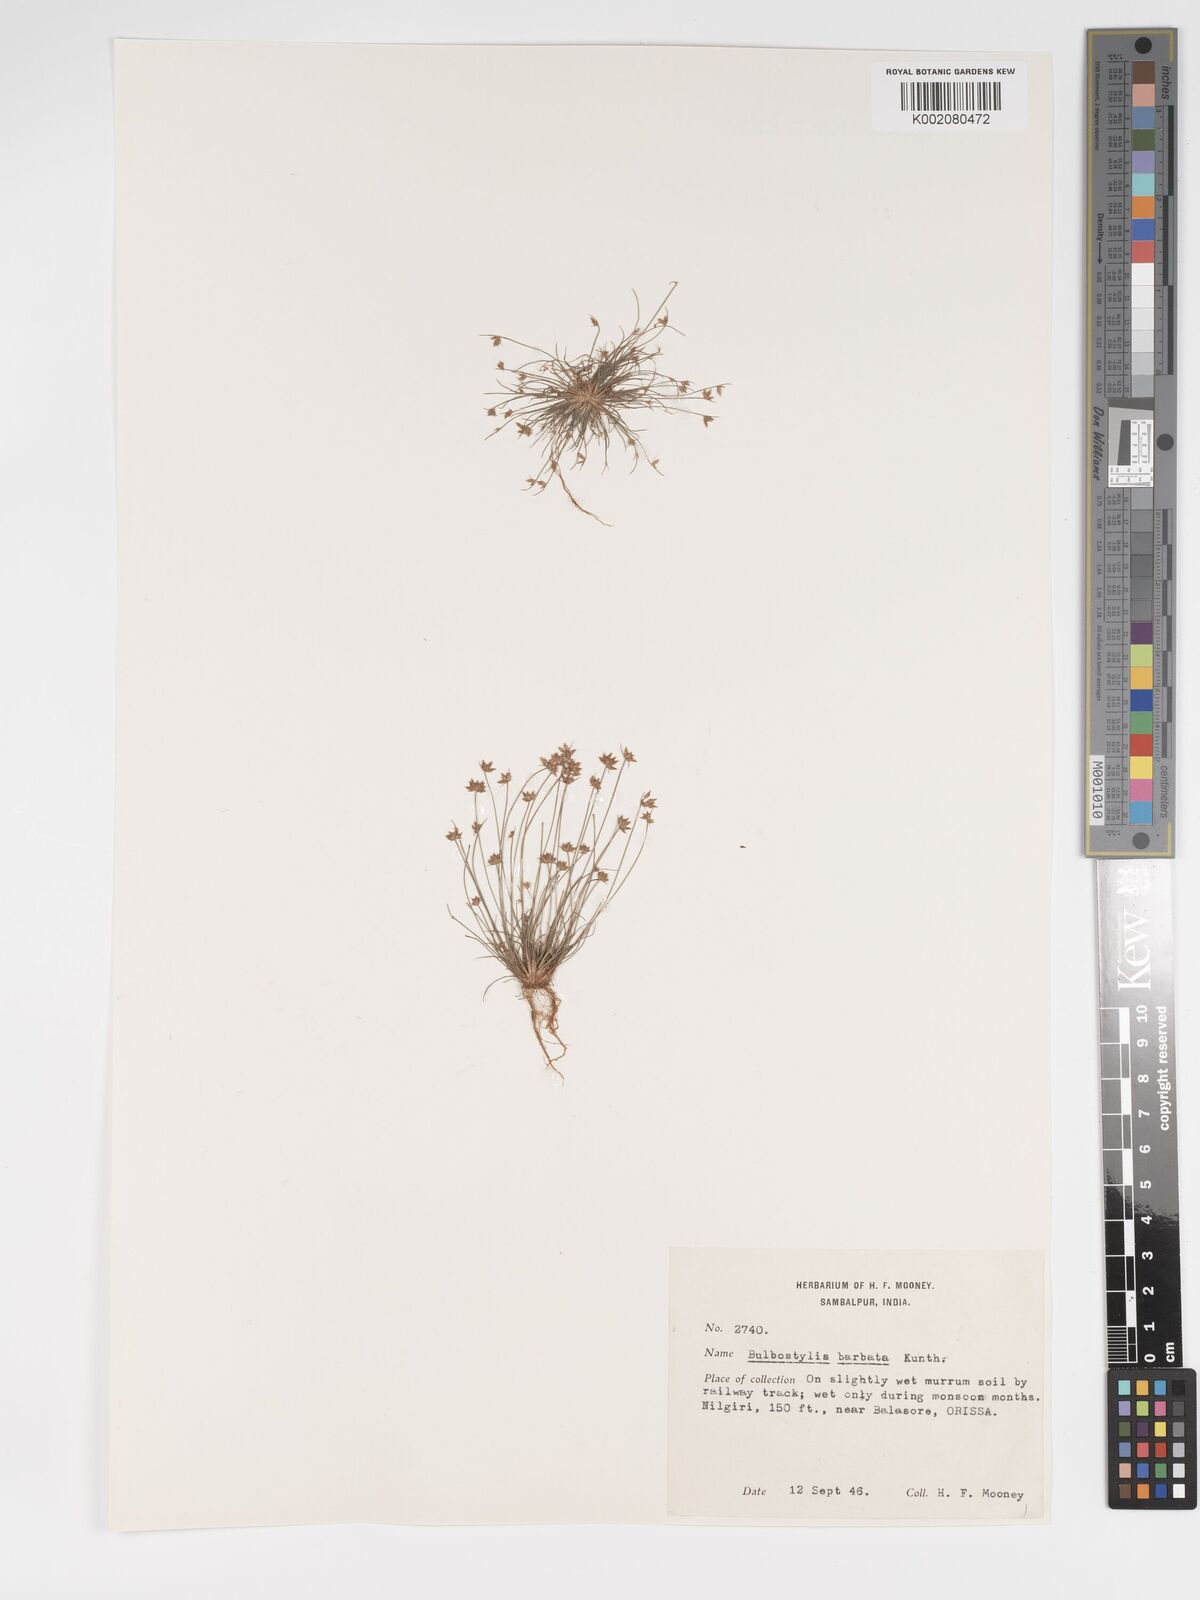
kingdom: Plantae
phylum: Tracheophyta
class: Liliopsida
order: Poales
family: Cyperaceae
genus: Bulbostylis
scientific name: Bulbostylis barbata
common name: Watergrass
